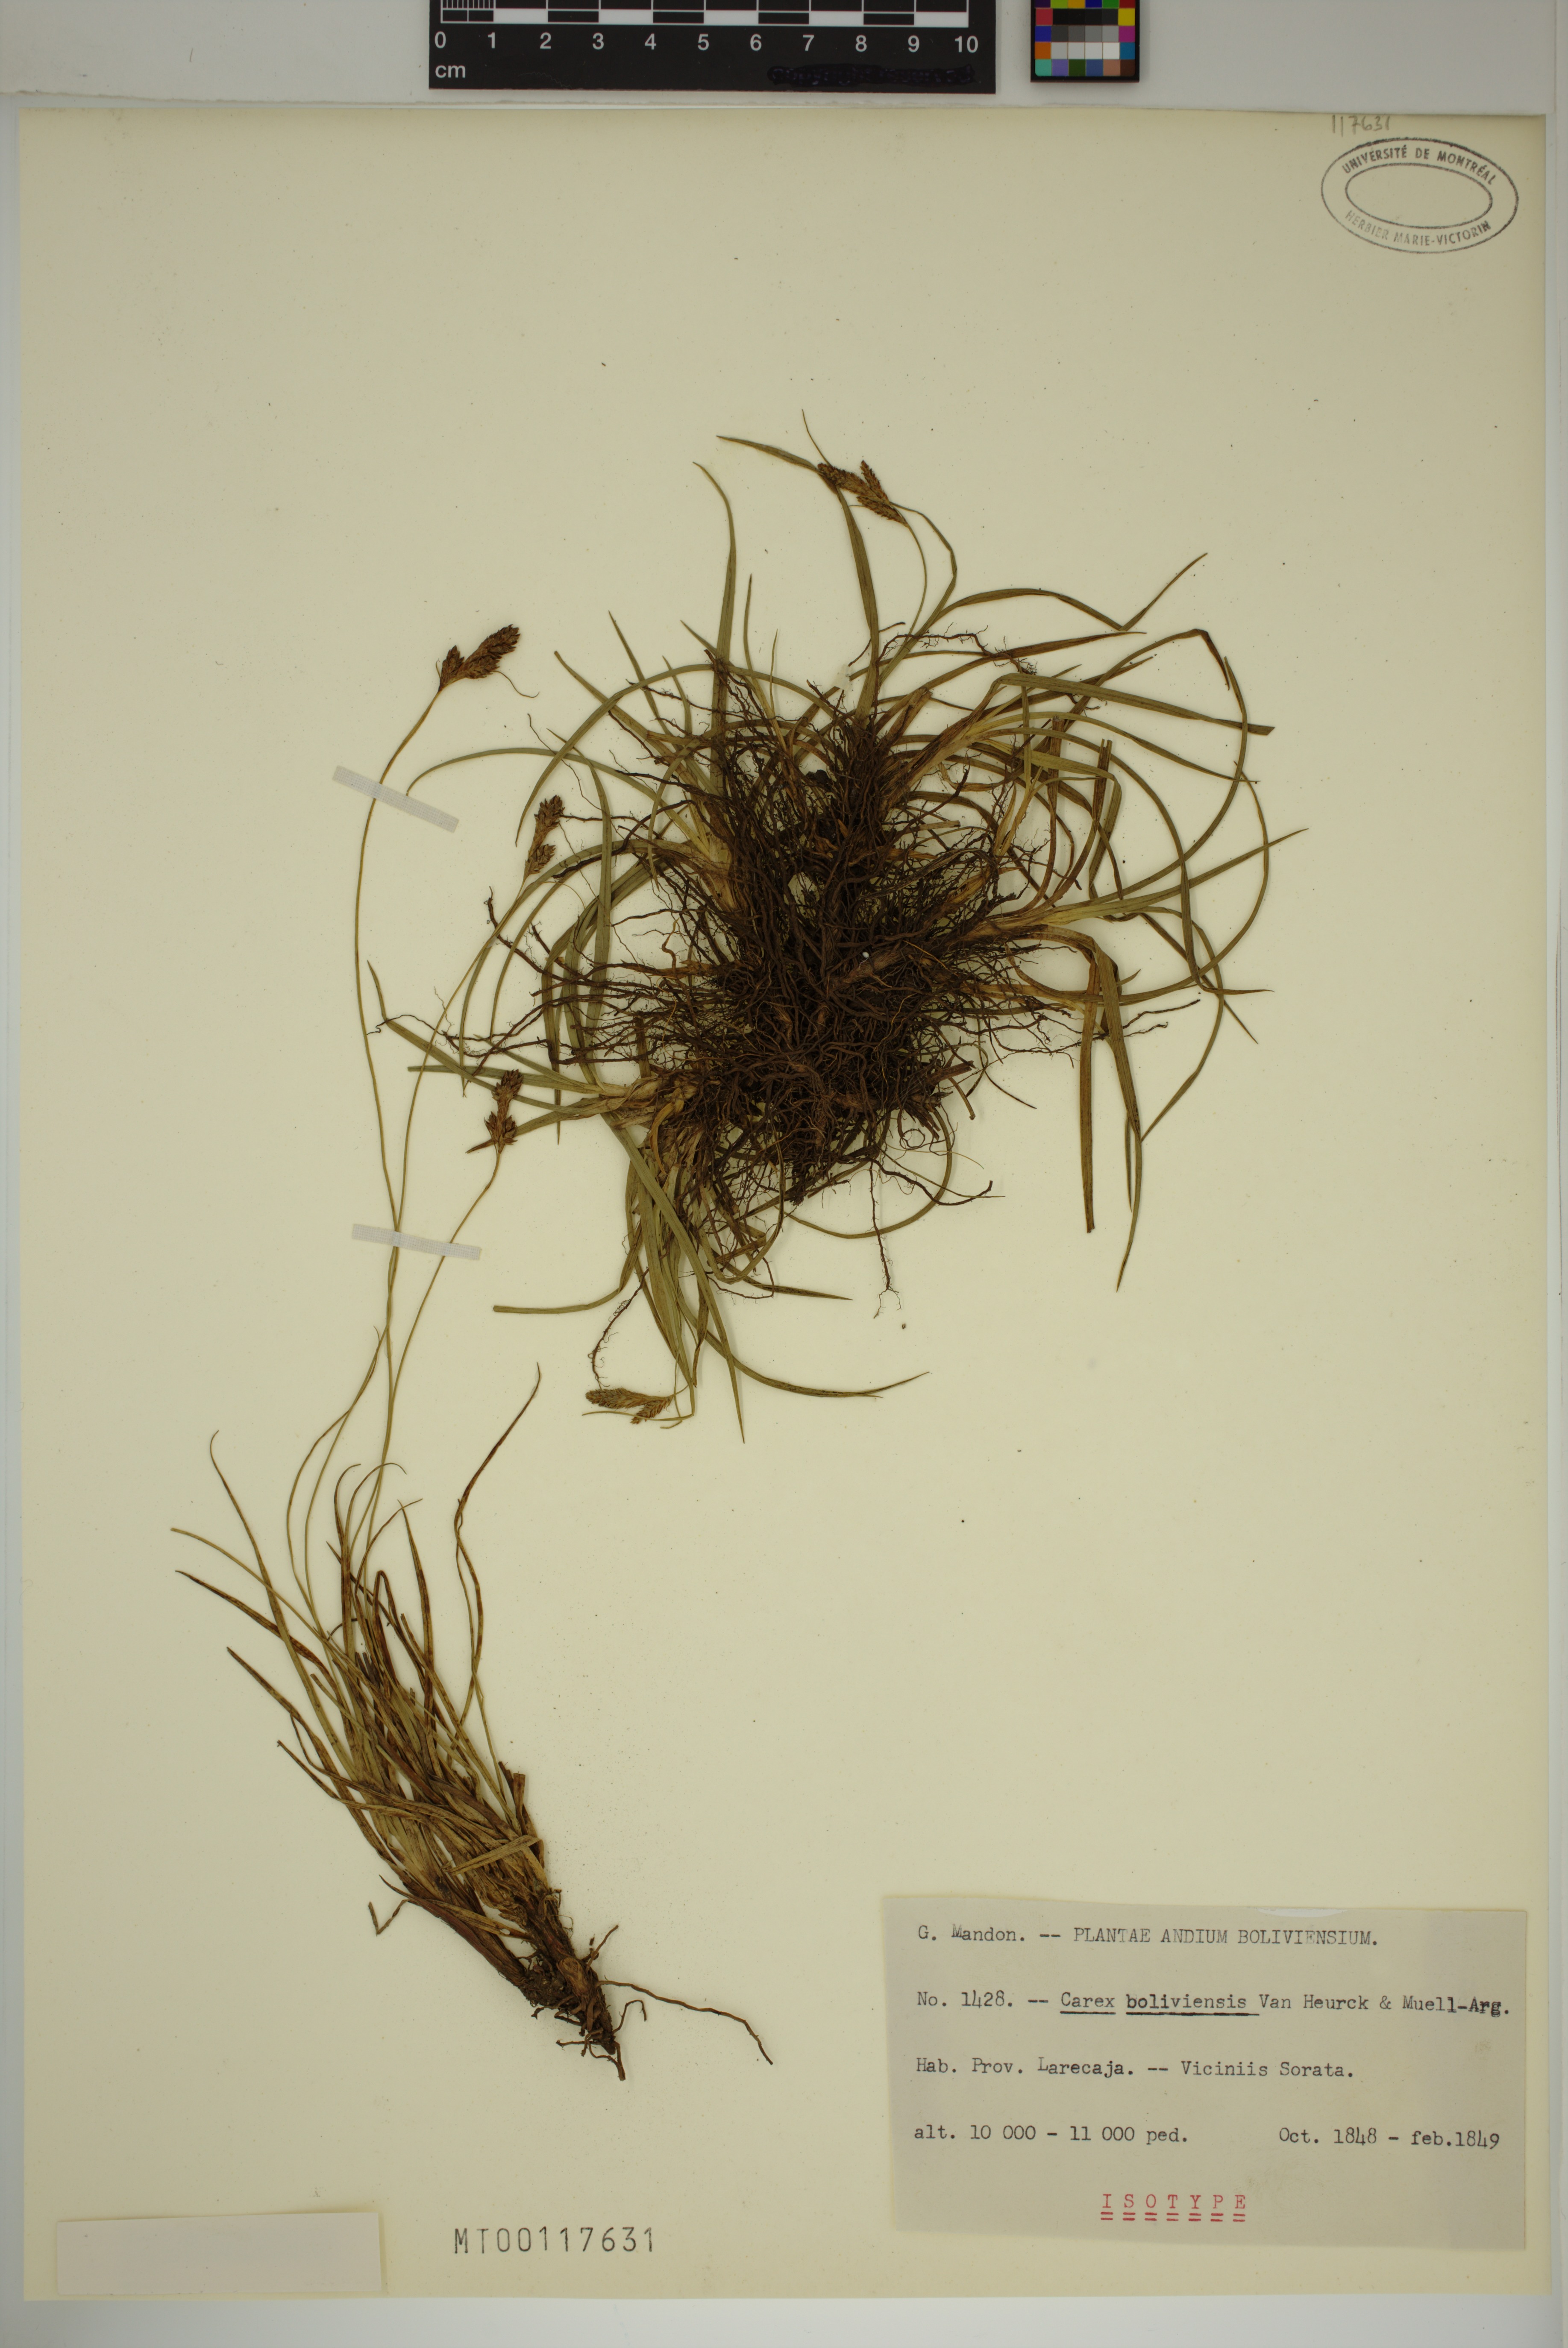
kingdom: Plantae
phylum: Tracheophyta
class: Liliopsida
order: Poales
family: Cyperaceae
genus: Carex
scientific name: Carex boliviensis
